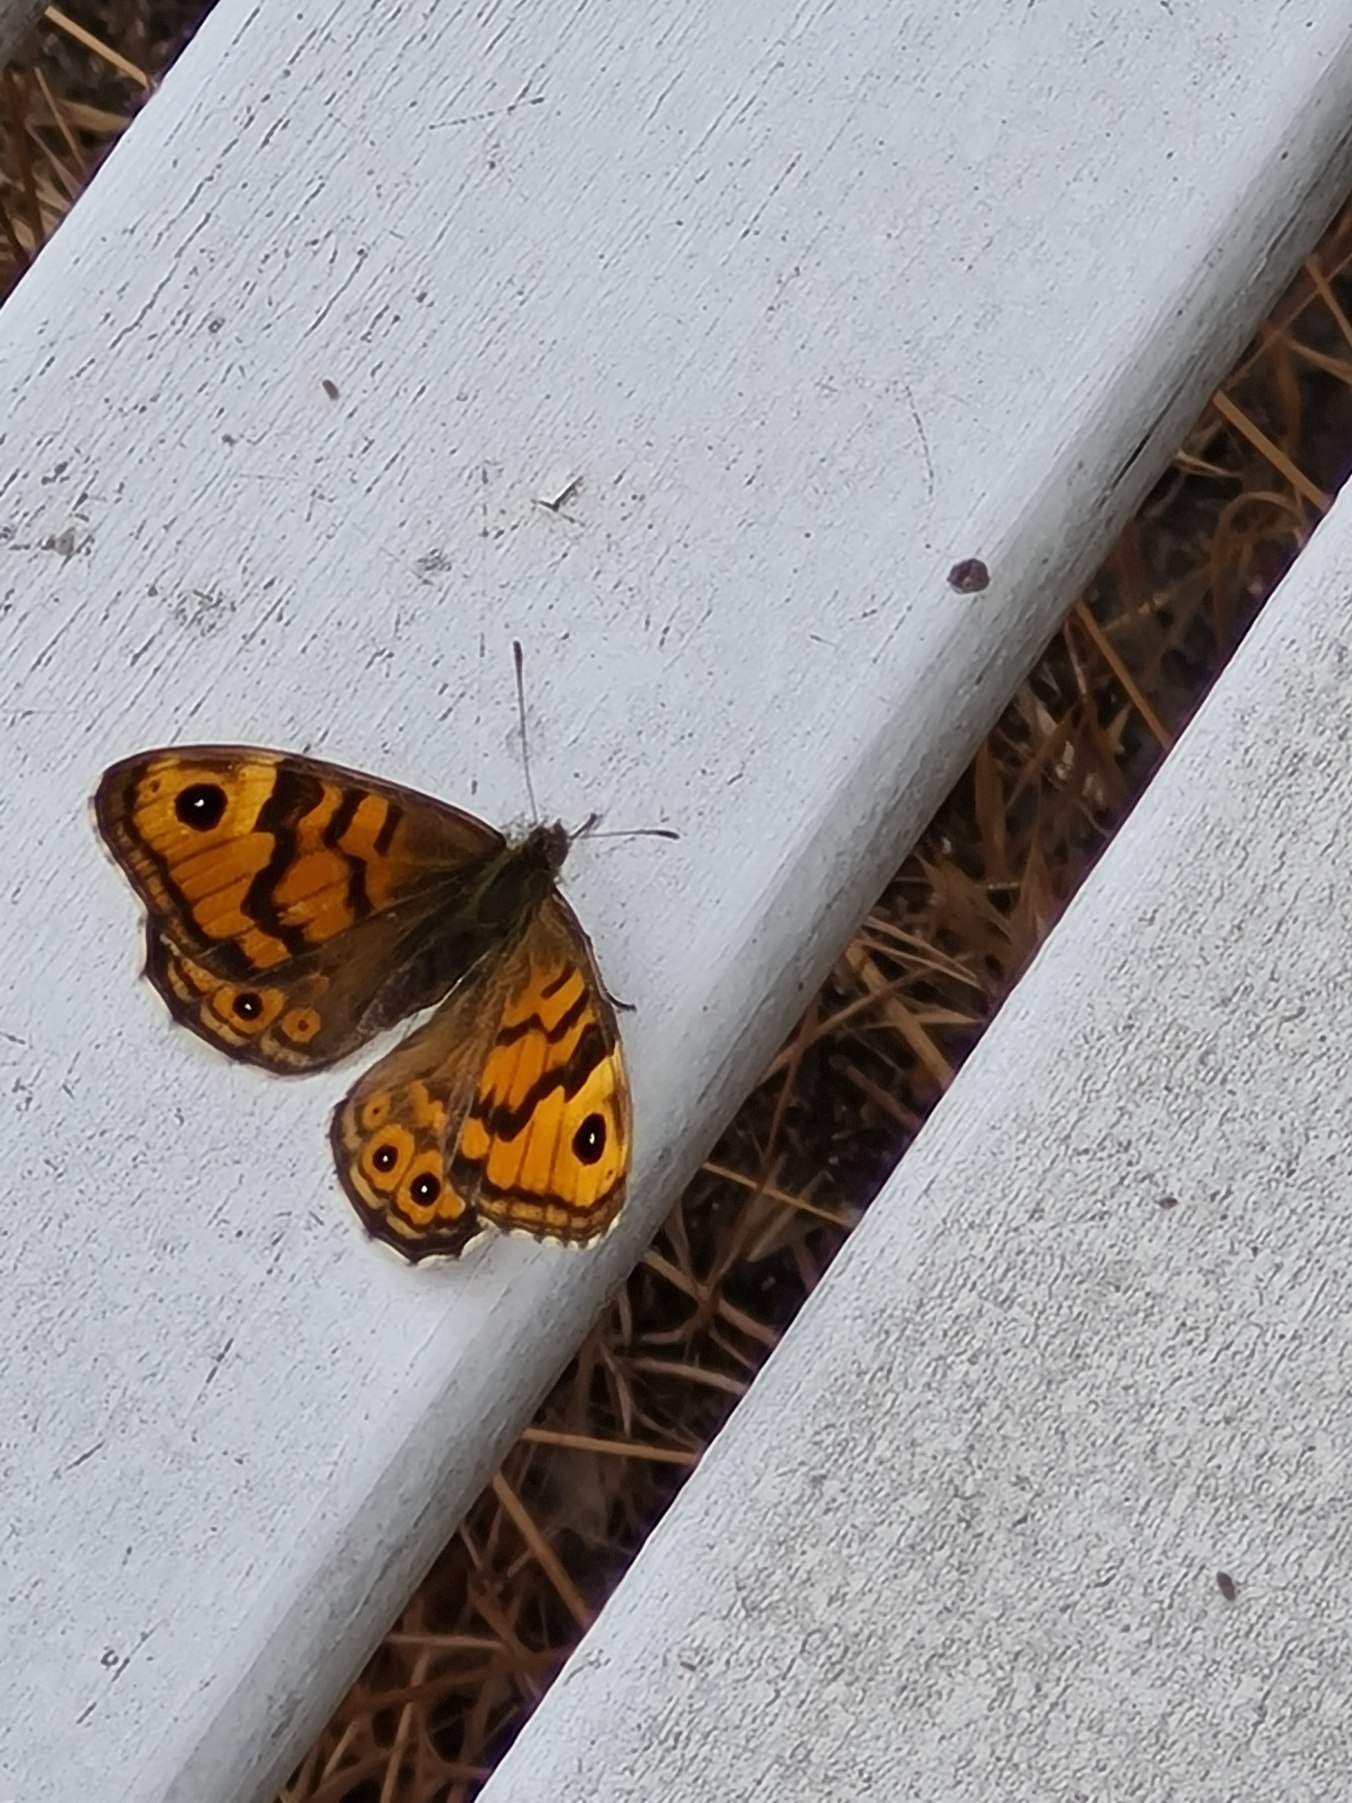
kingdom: Animalia
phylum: Arthropoda
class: Insecta
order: Lepidoptera
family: Nymphalidae
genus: Pararge
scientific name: Pararge Lasiommata megera
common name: Vejrandøje
